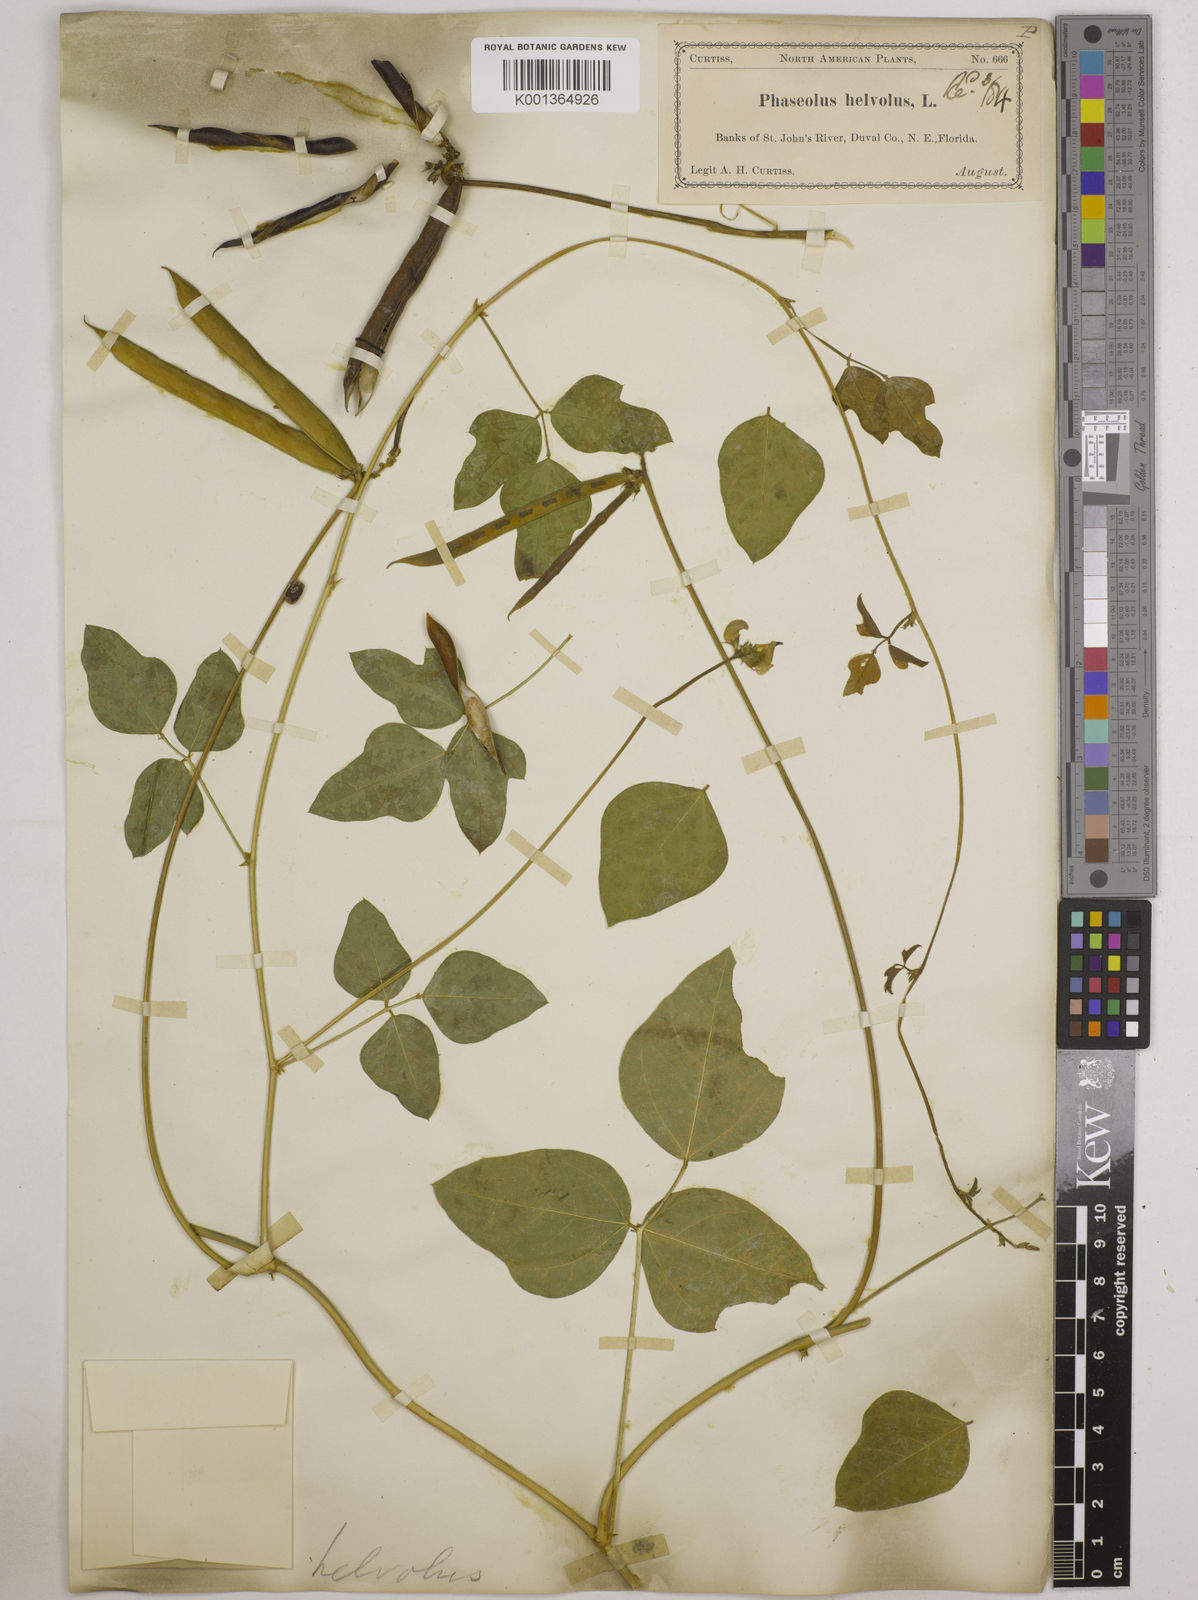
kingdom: Plantae
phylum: Tracheophyta
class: Magnoliopsida
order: Fabales
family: Fabaceae
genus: Strophostyles
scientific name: Strophostyles
